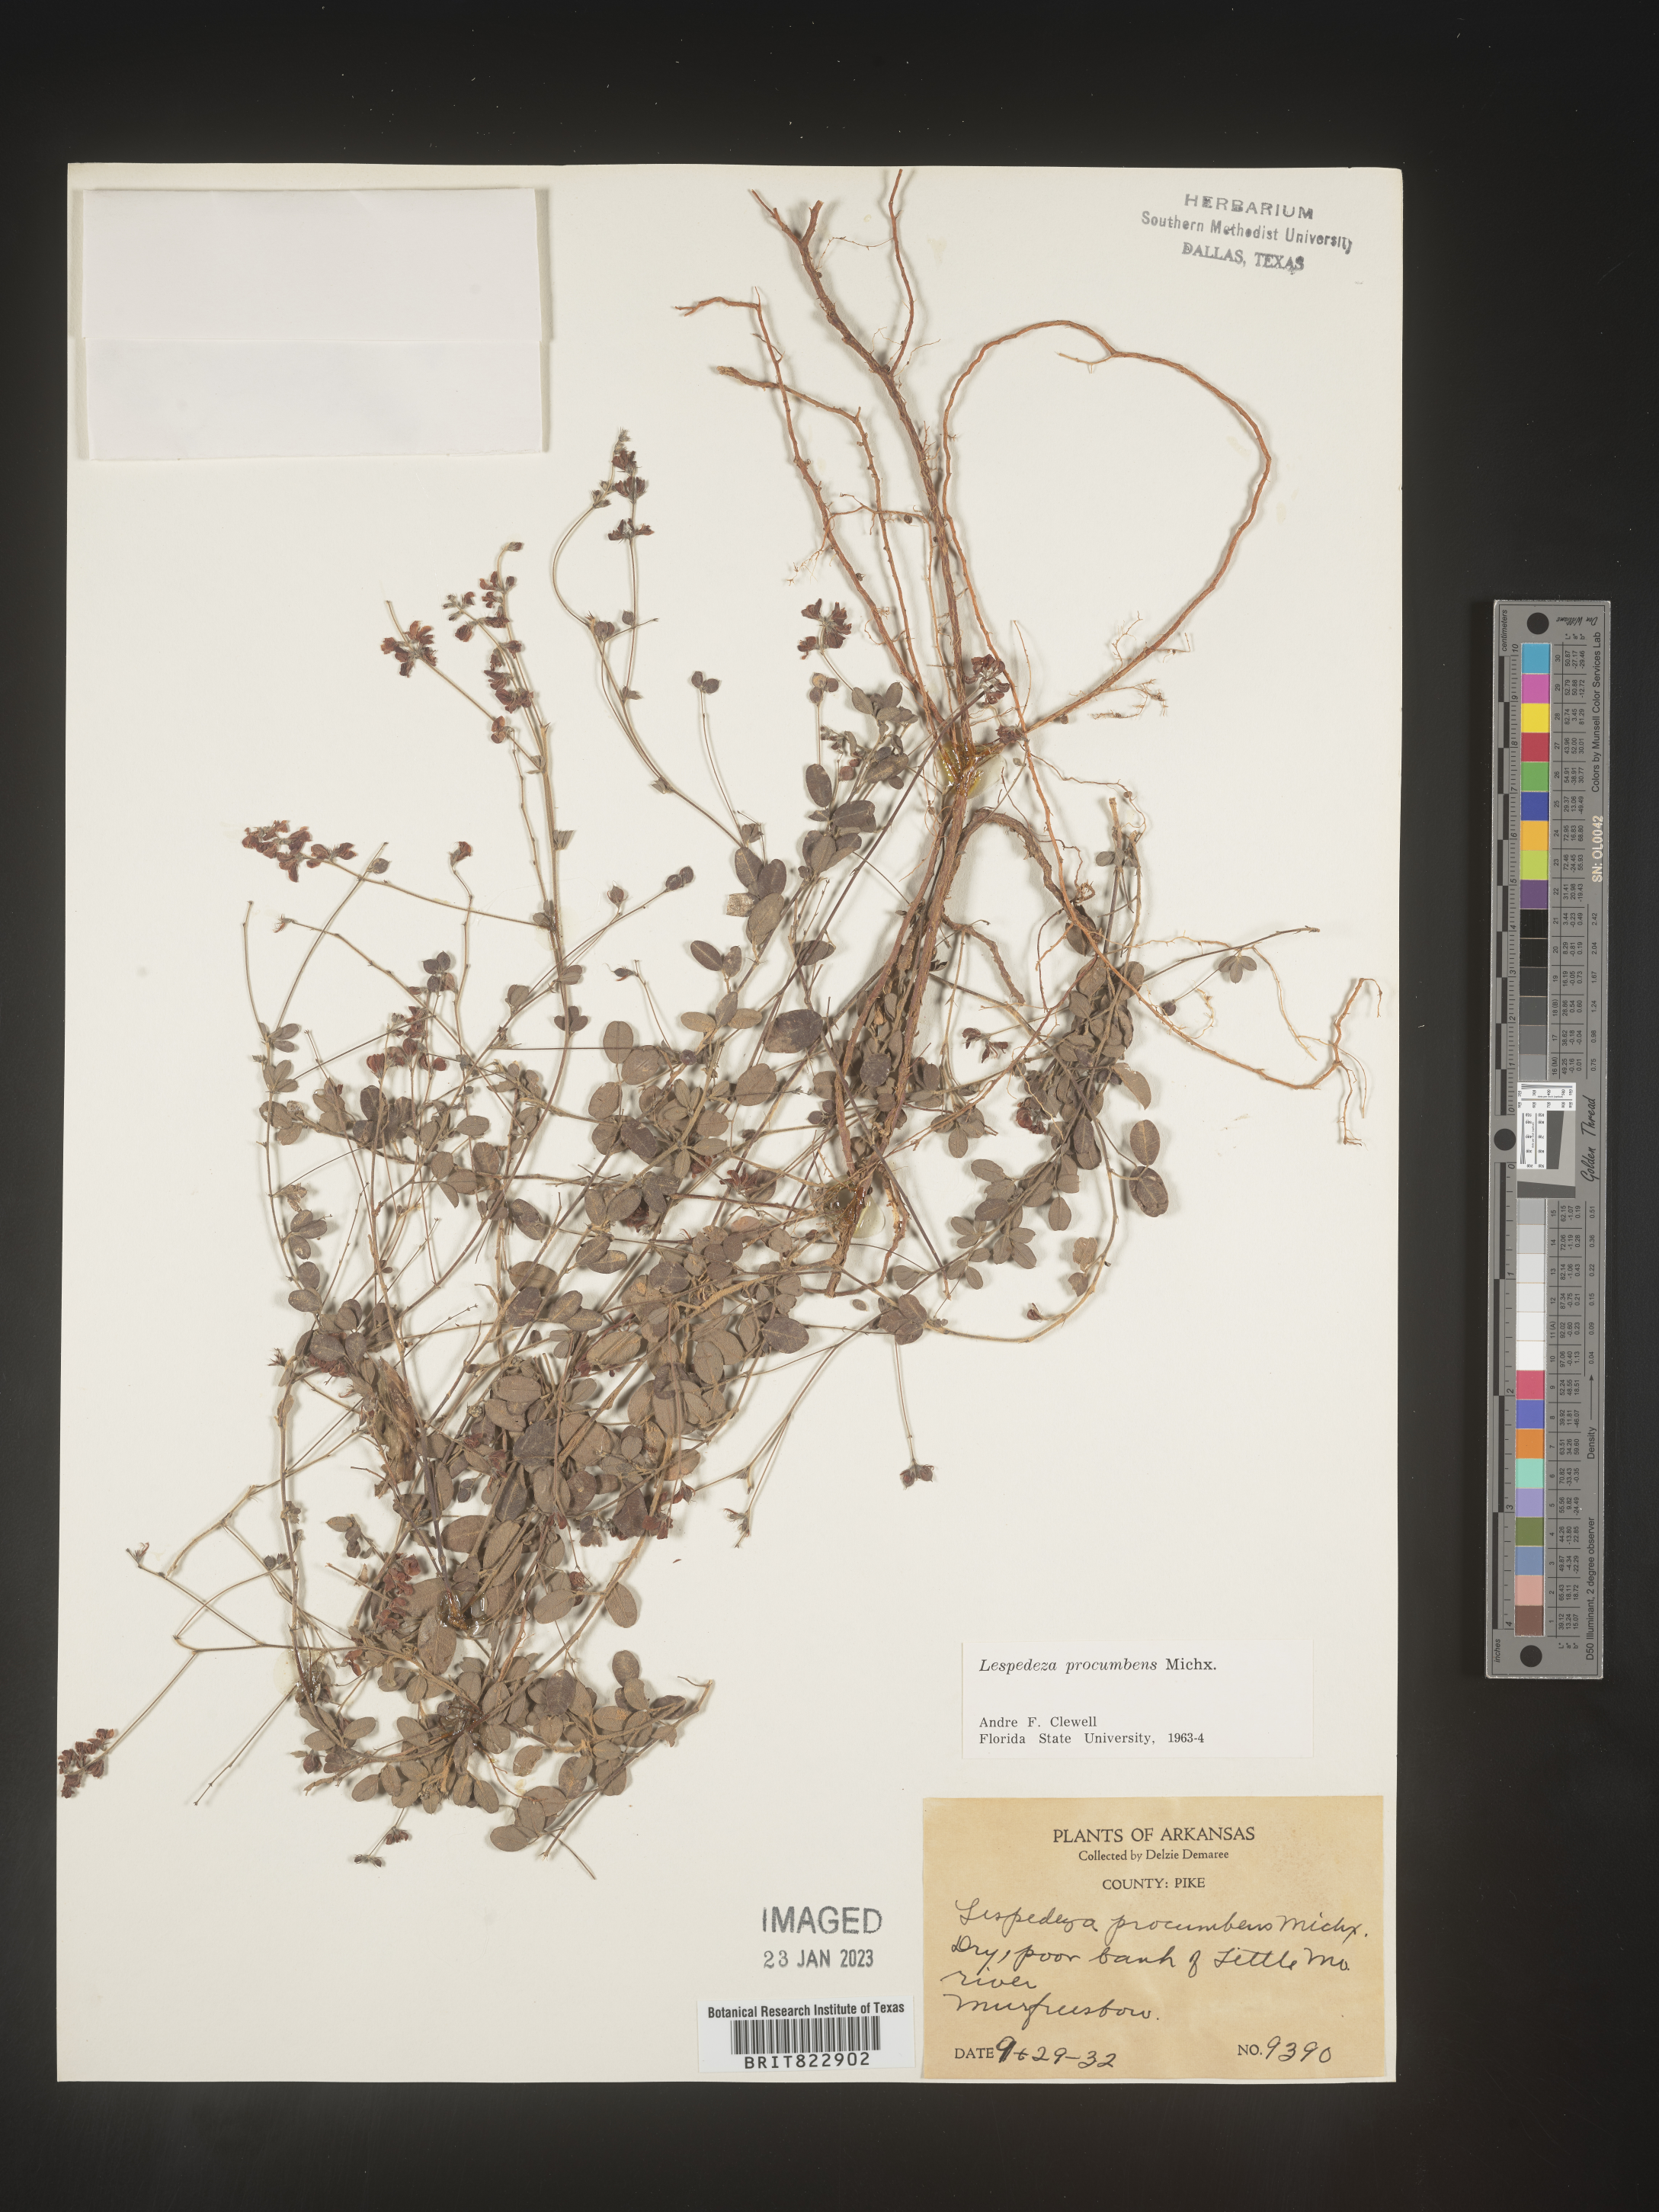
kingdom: Plantae
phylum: Tracheophyta
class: Magnoliopsida
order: Fabales
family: Fabaceae
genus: Lespedeza
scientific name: Lespedeza procumbens
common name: Downy trailing bush-clover
